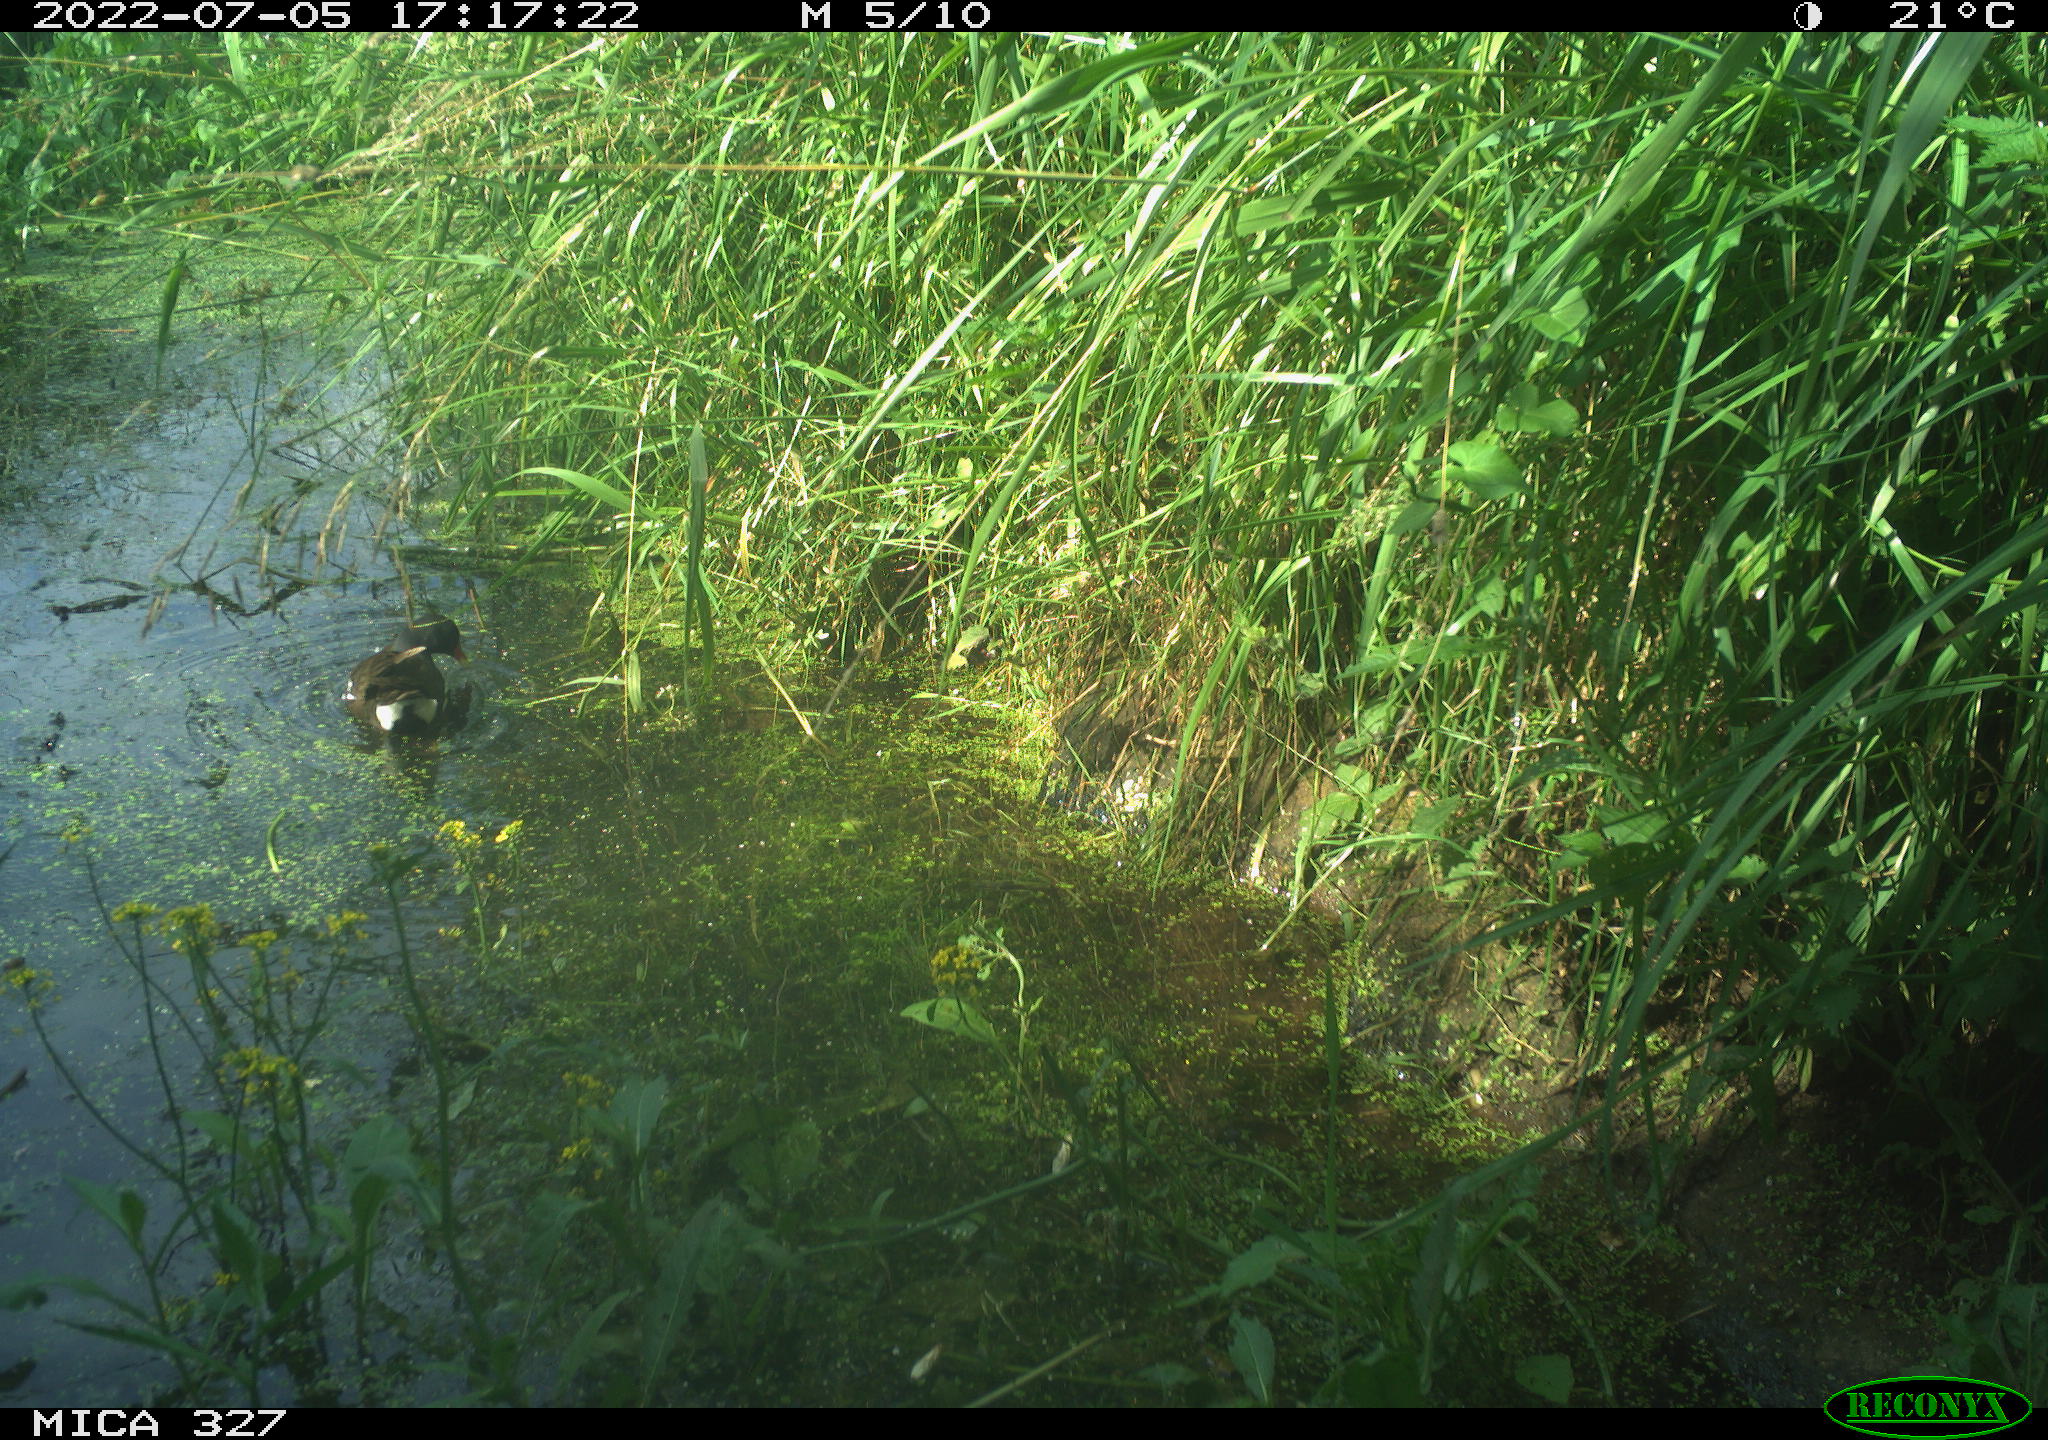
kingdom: Animalia
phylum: Chordata
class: Aves
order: Gruiformes
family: Rallidae
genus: Gallinula
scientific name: Gallinula chloropus
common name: Common moorhen
